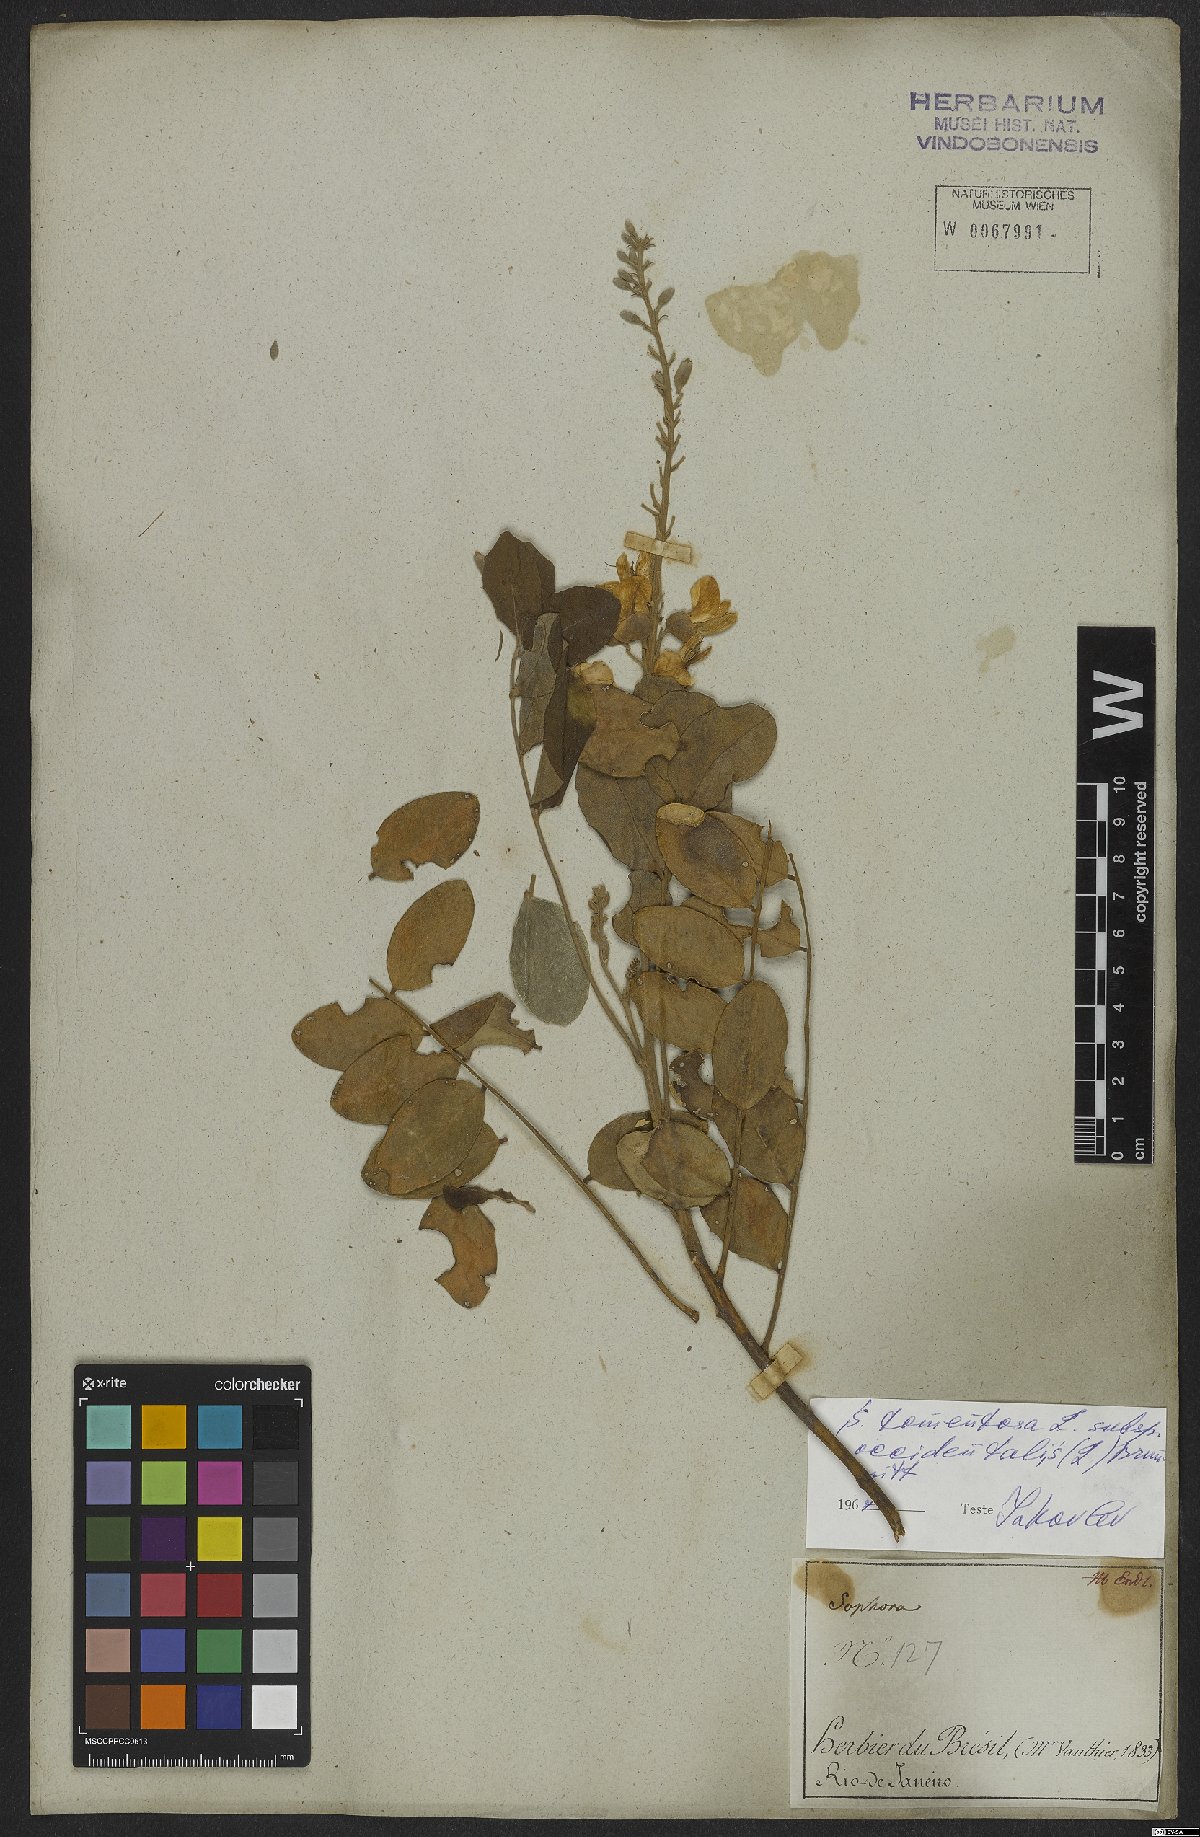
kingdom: Plantae
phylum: Tracheophyta
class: Magnoliopsida
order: Fabales
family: Fabaceae
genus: Sophora
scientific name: Sophora tomentosa
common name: Yellow necklacepod
